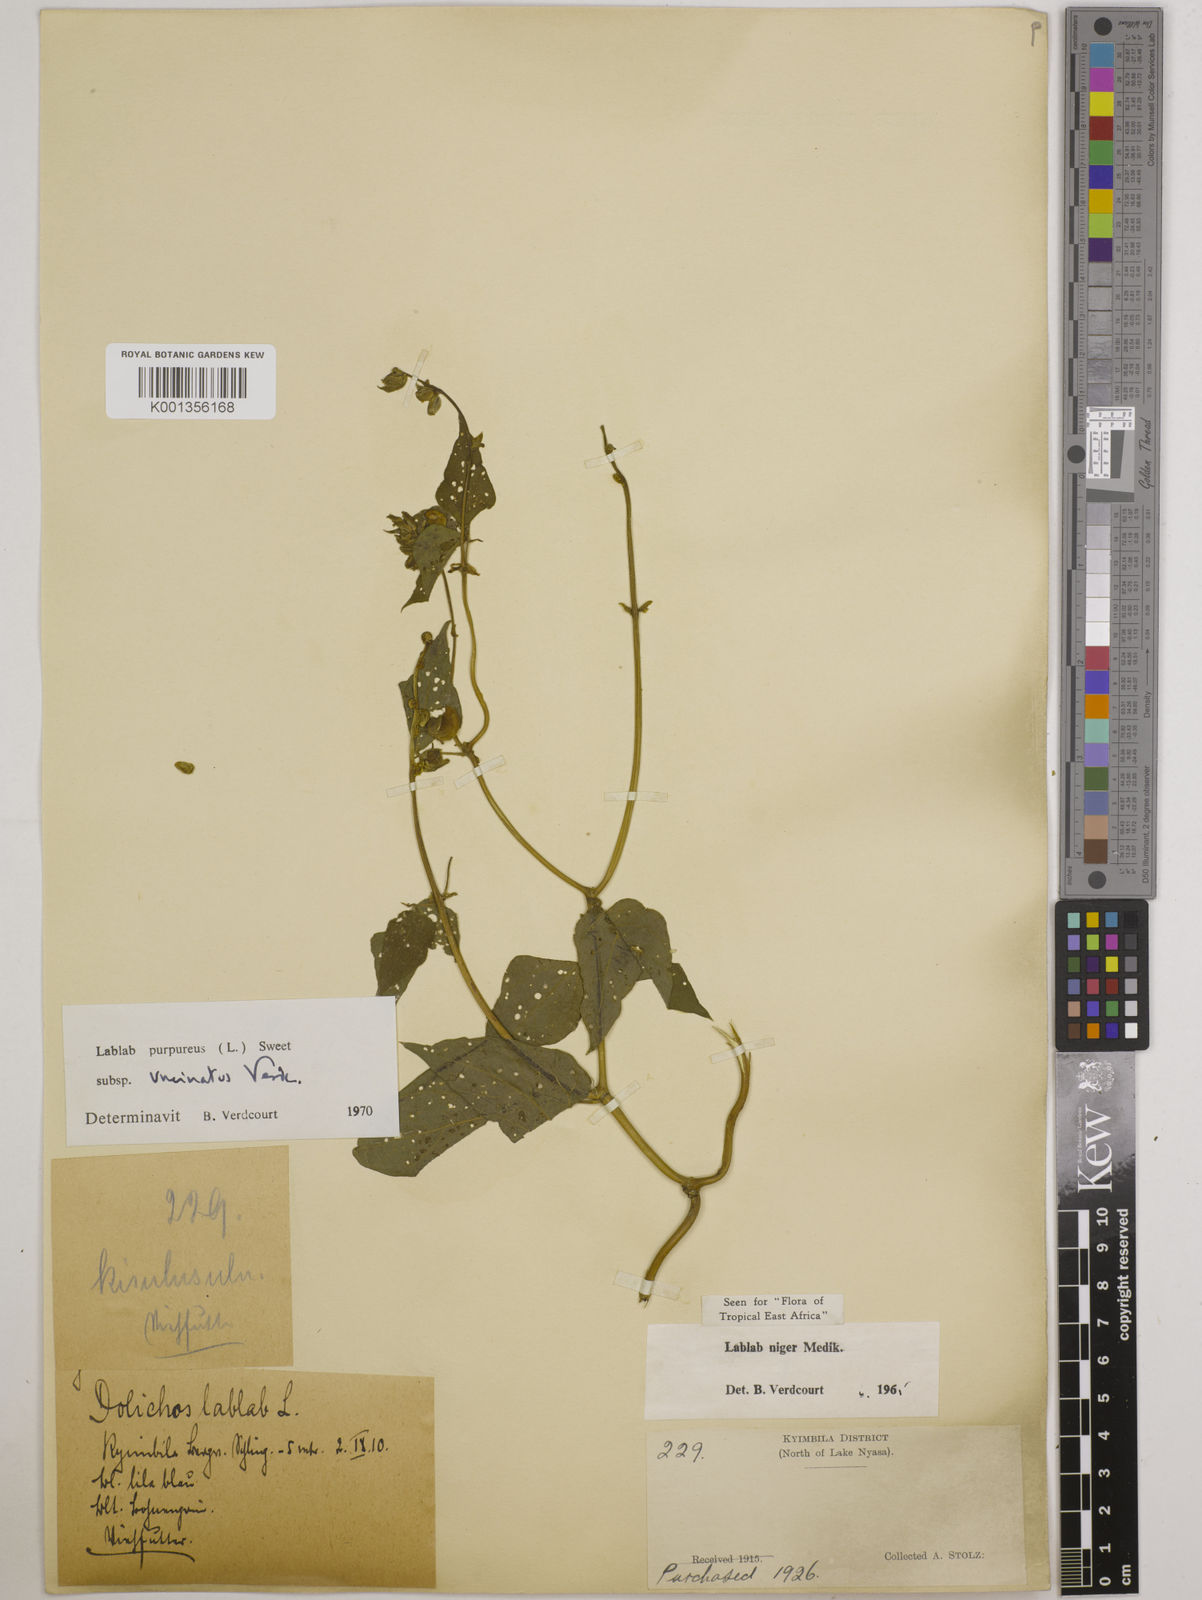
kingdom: Plantae
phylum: Tracheophyta
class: Magnoliopsida
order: Fabales
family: Fabaceae
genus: Lablab
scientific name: Lablab purpureus
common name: Lablab-bean
